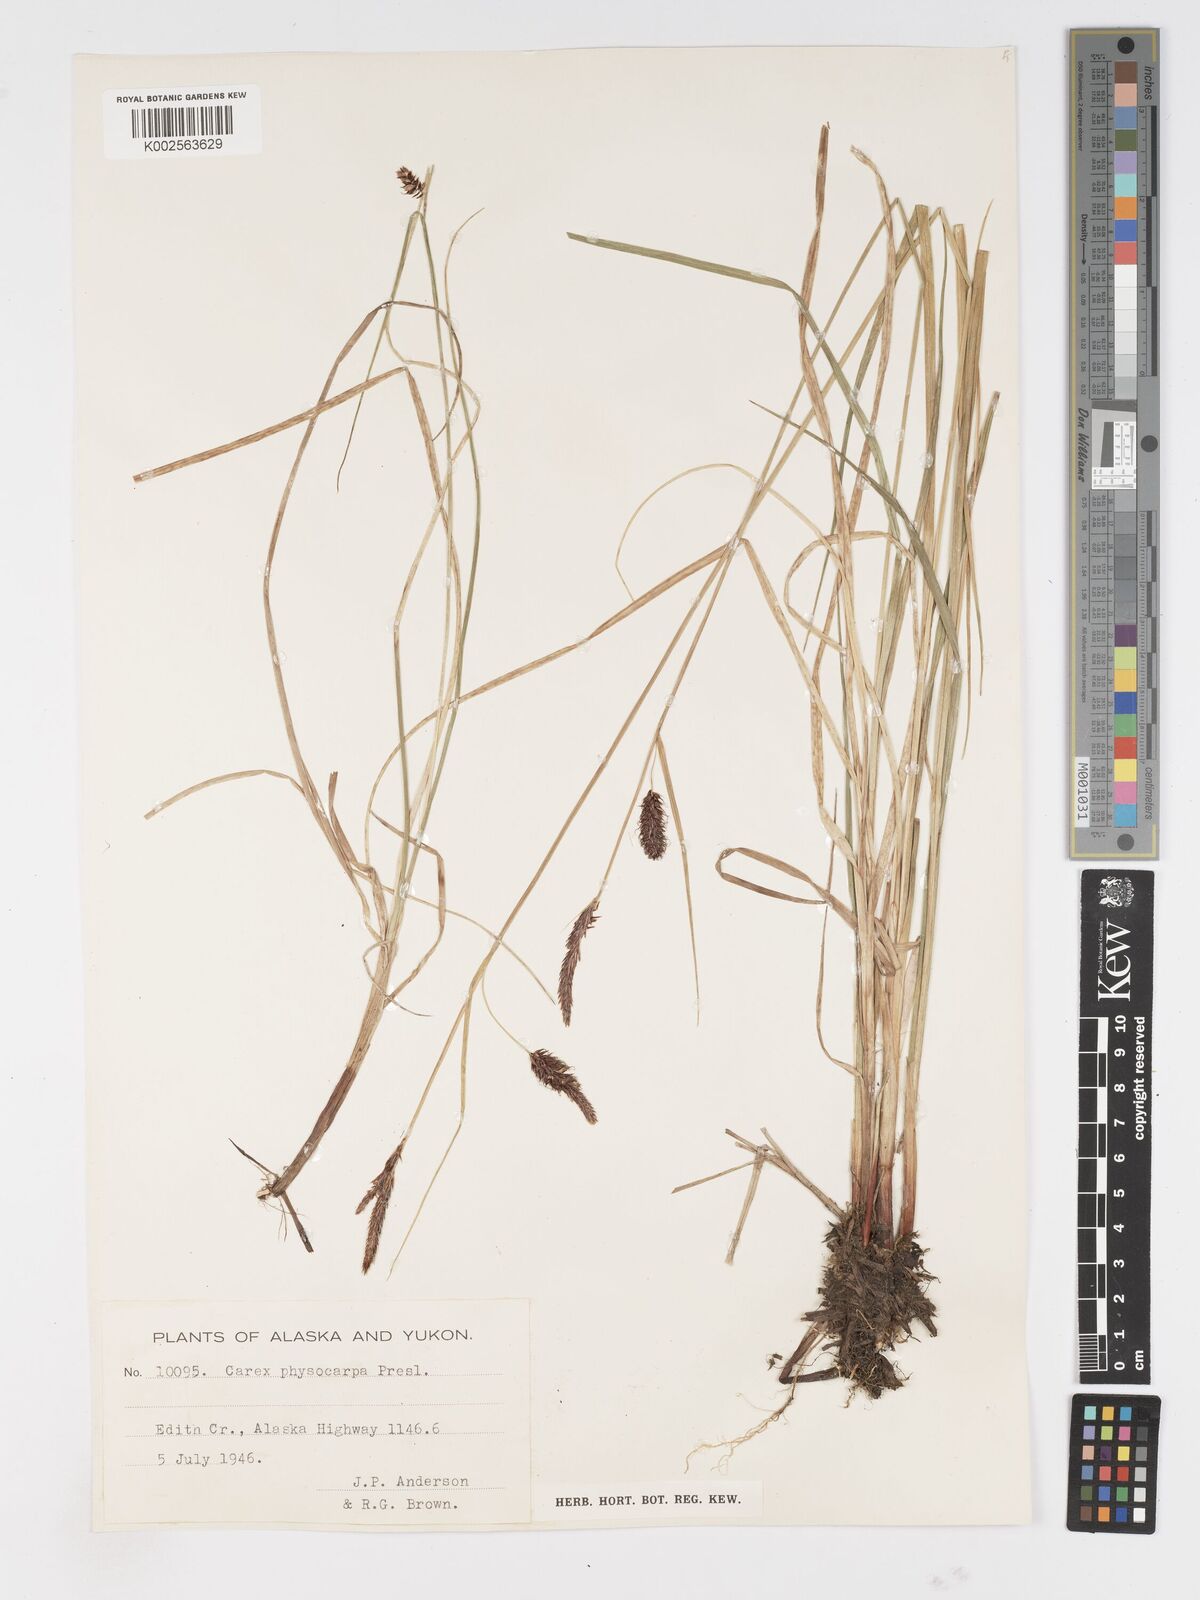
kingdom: Plantae
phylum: Tracheophyta
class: Liliopsida
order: Poales
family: Cyperaceae
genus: Carex
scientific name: Carex saxatilis
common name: Russet sedge
